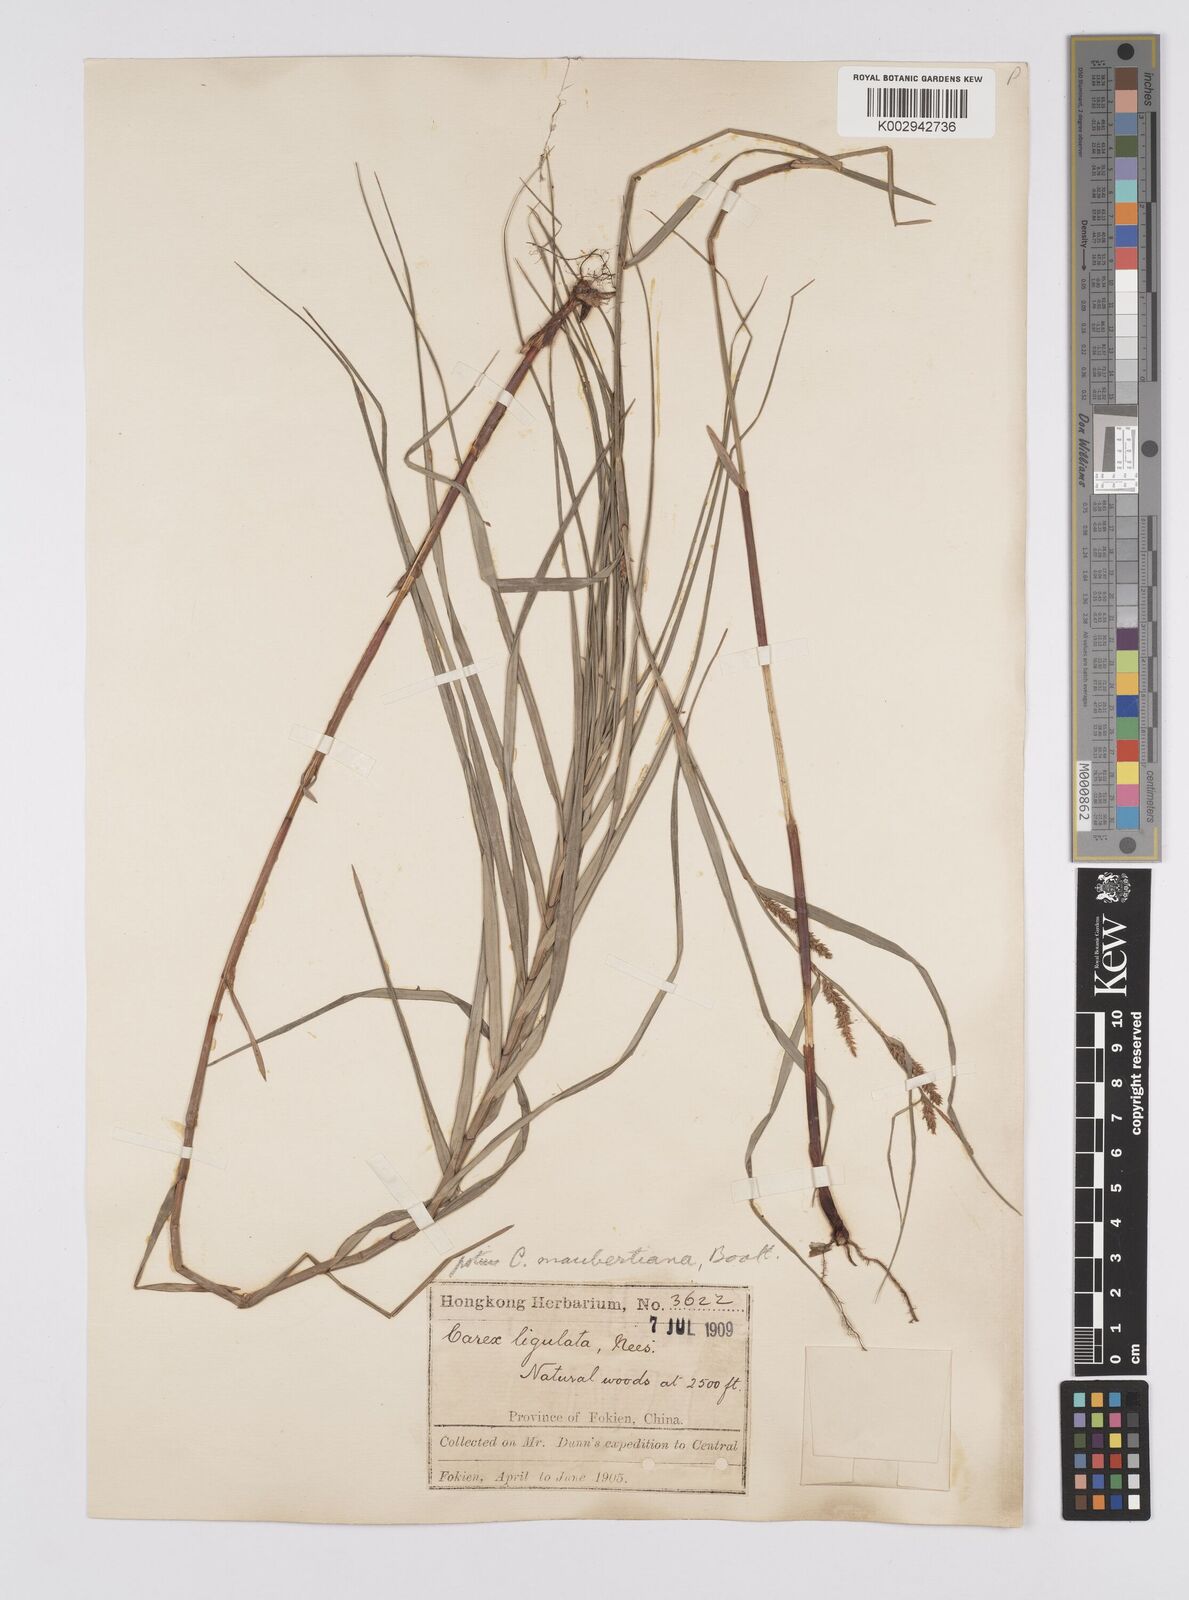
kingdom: Plantae
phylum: Tracheophyta
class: Liliopsida
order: Poales
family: Cyperaceae
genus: Carex
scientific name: Carex ligulata
